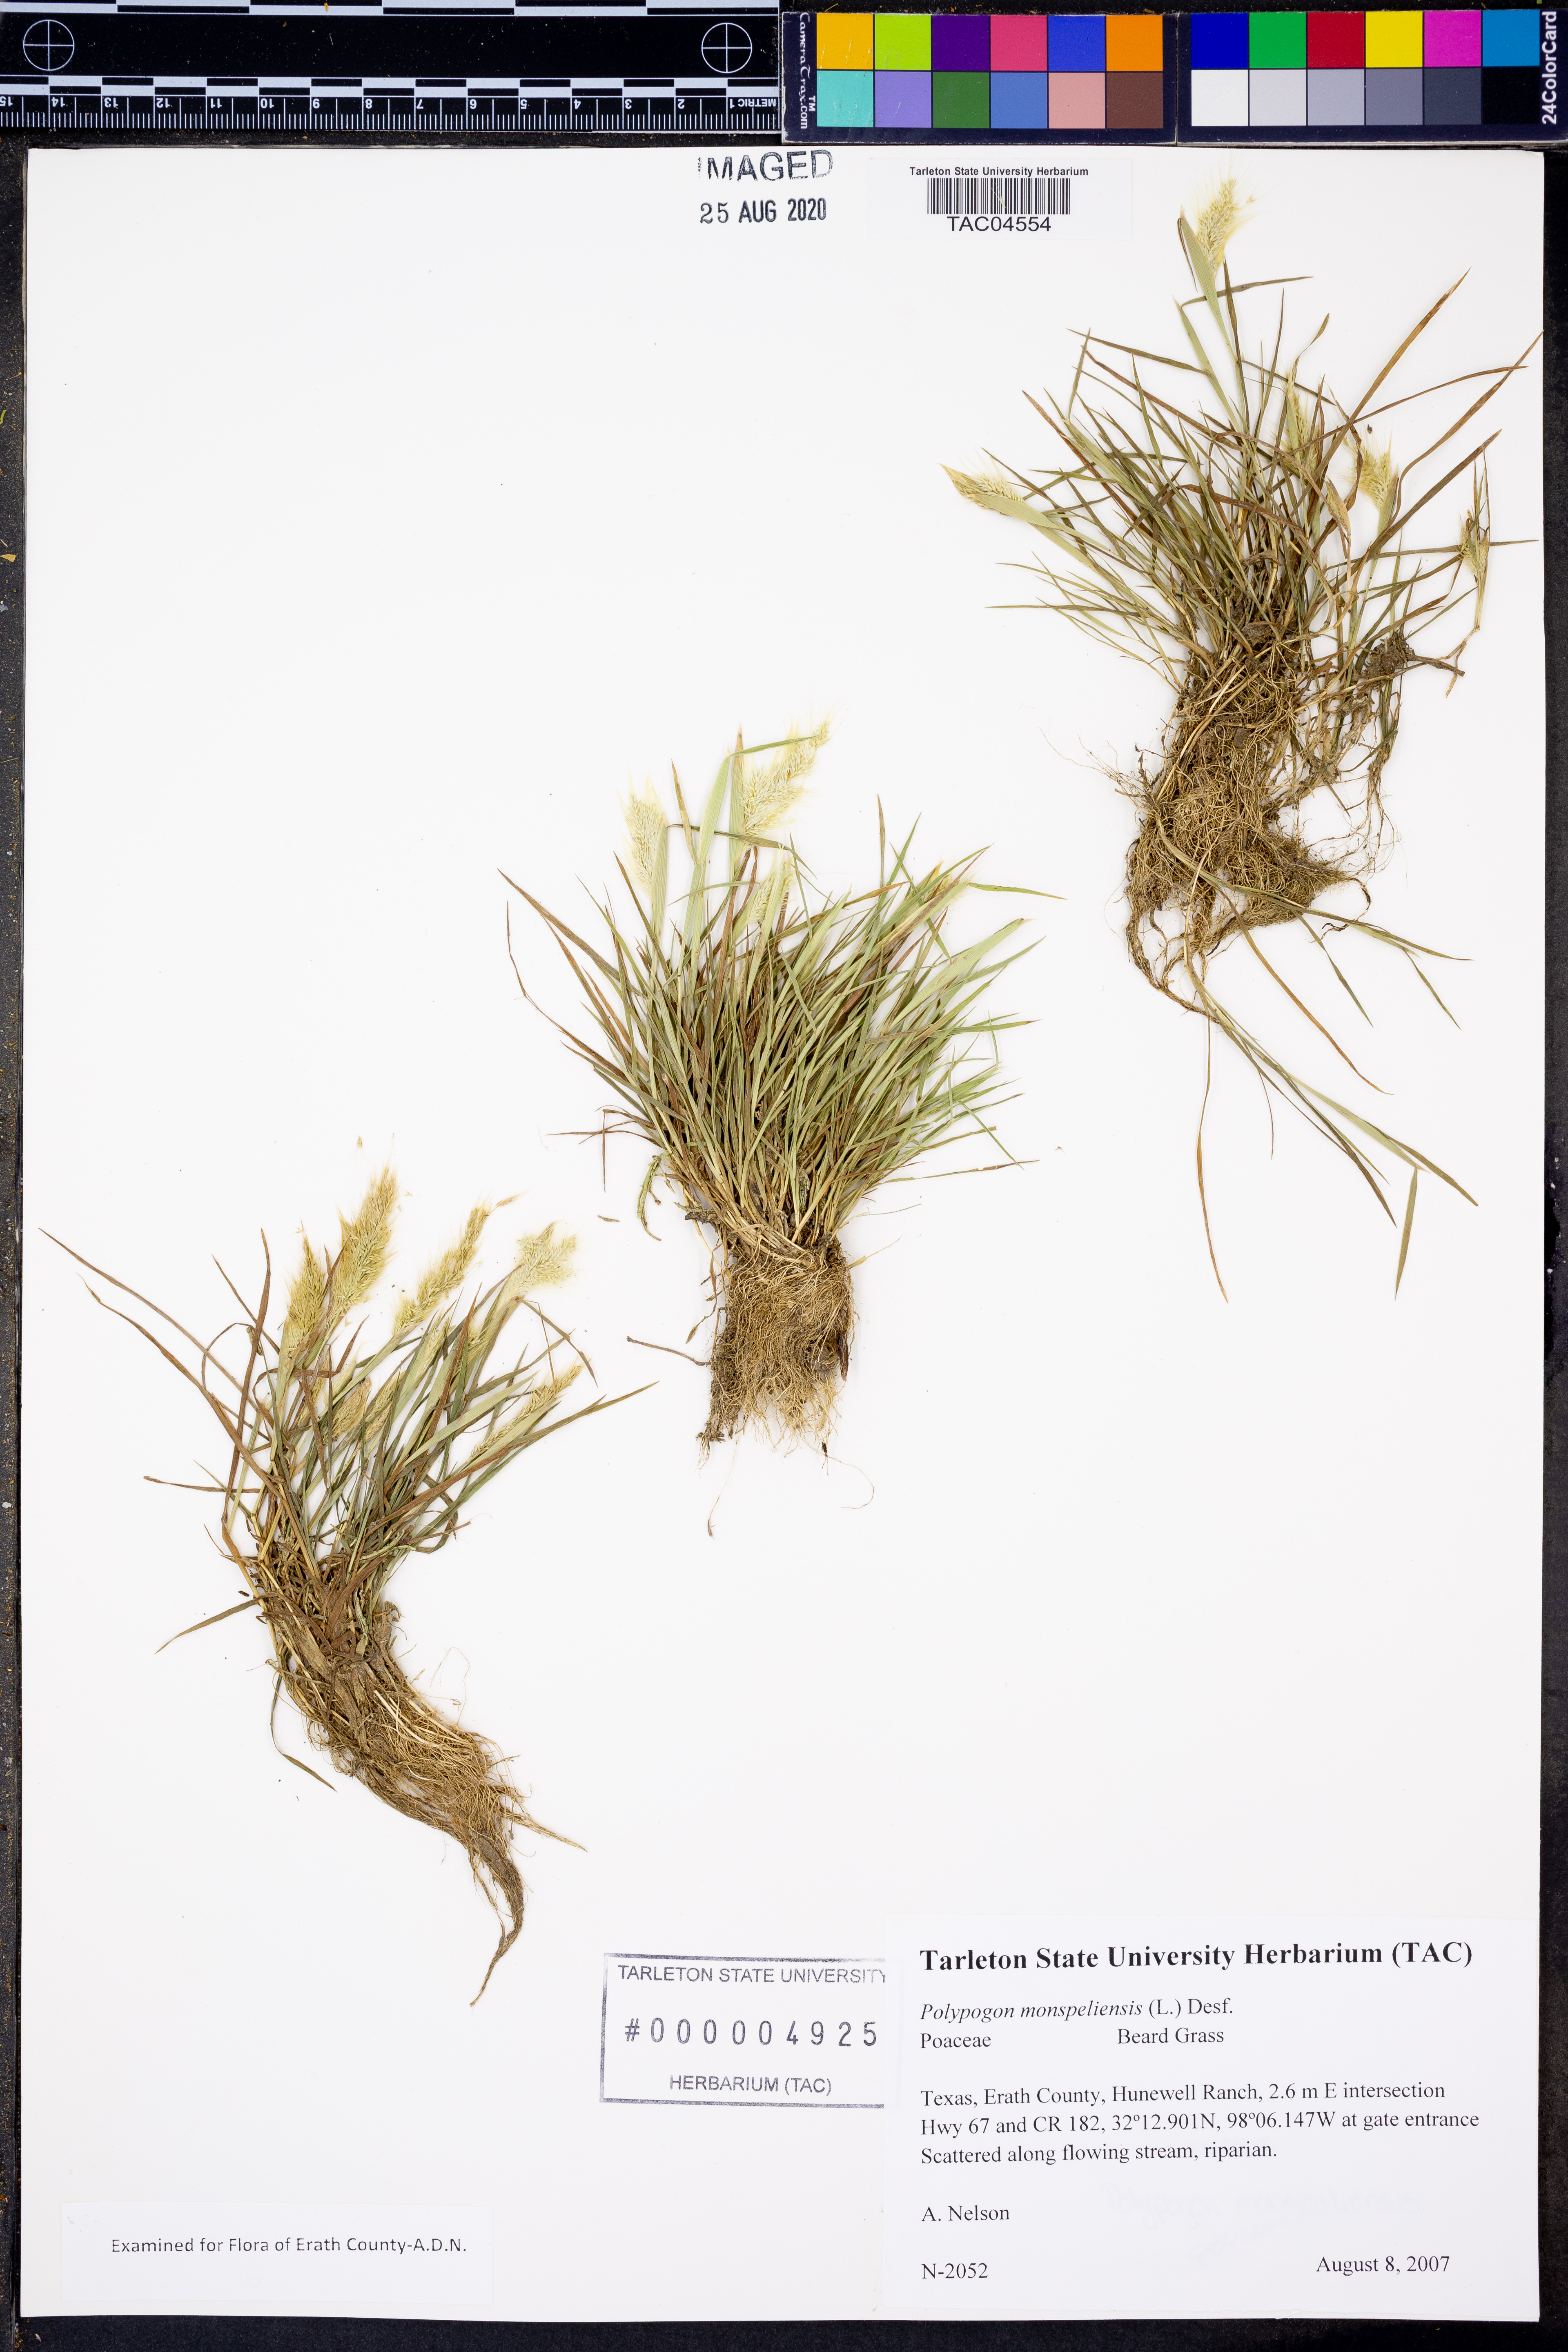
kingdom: Plantae
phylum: Tracheophyta
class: Liliopsida
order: Poales
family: Poaceae
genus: Polypogon
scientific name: Polypogon monspeliensis
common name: Annual rabbitsfoot grass
